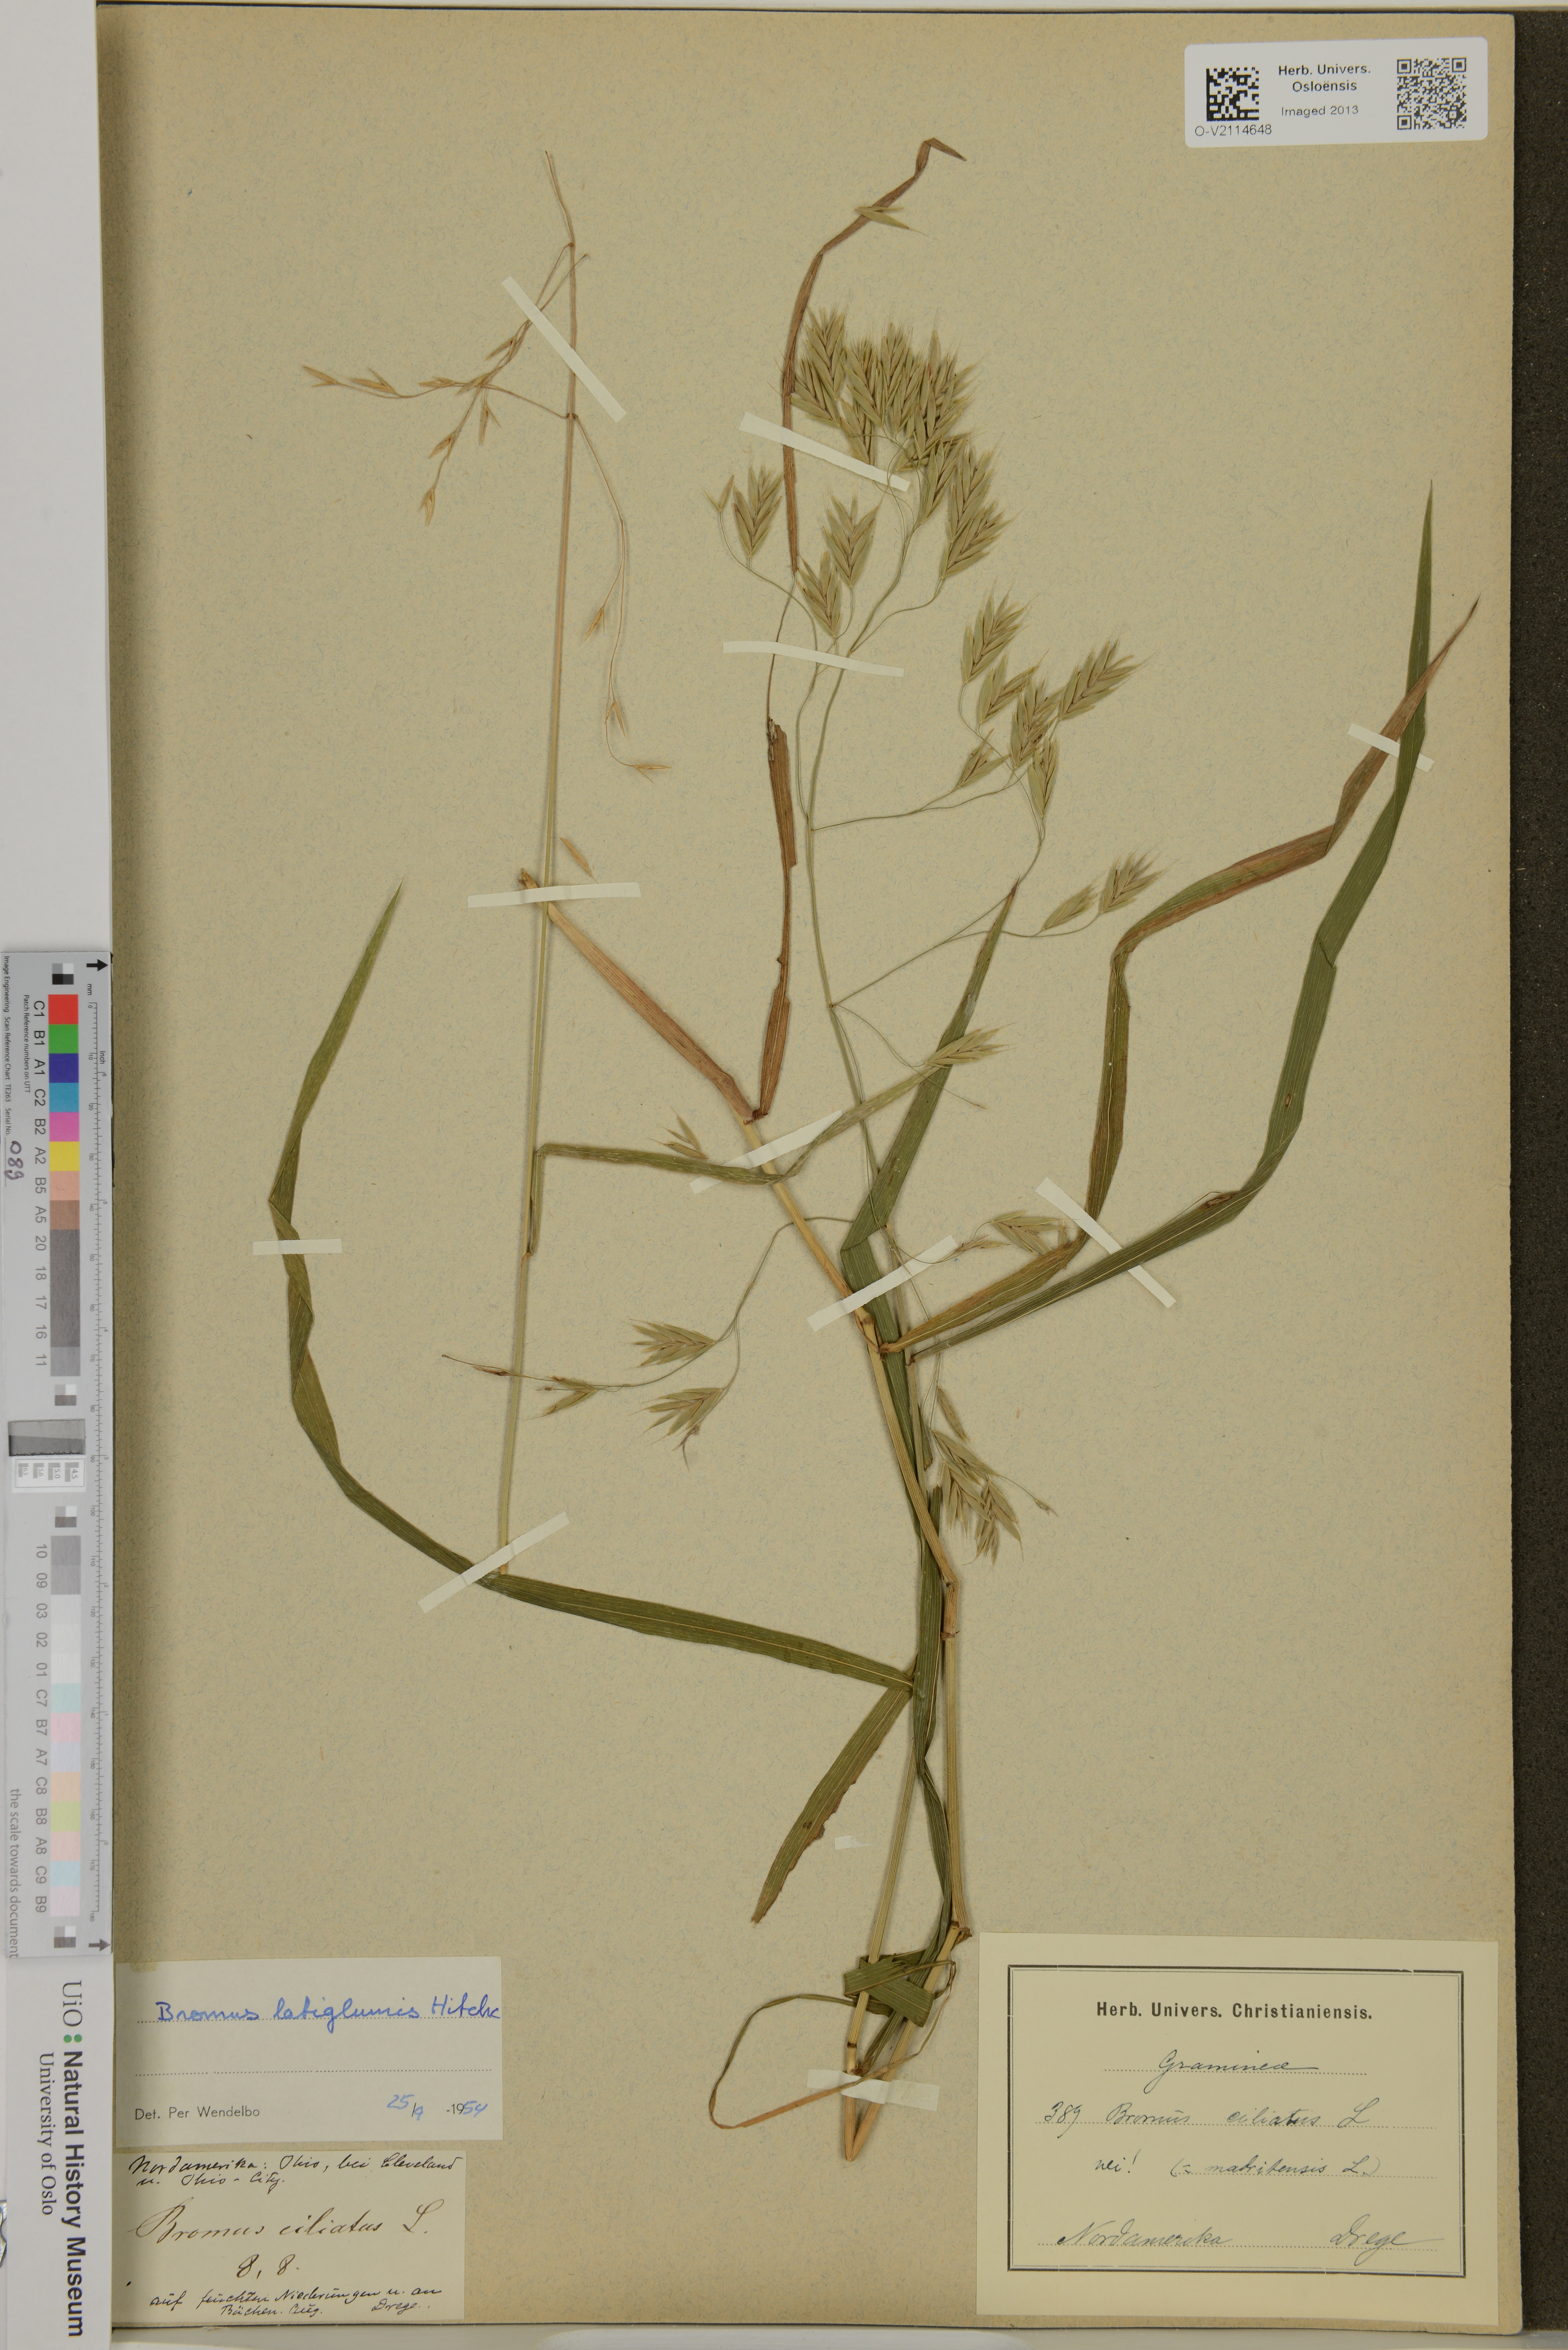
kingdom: Plantae
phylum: Tracheophyta
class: Liliopsida
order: Poales
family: Poaceae
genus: Bromus
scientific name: Bromus
